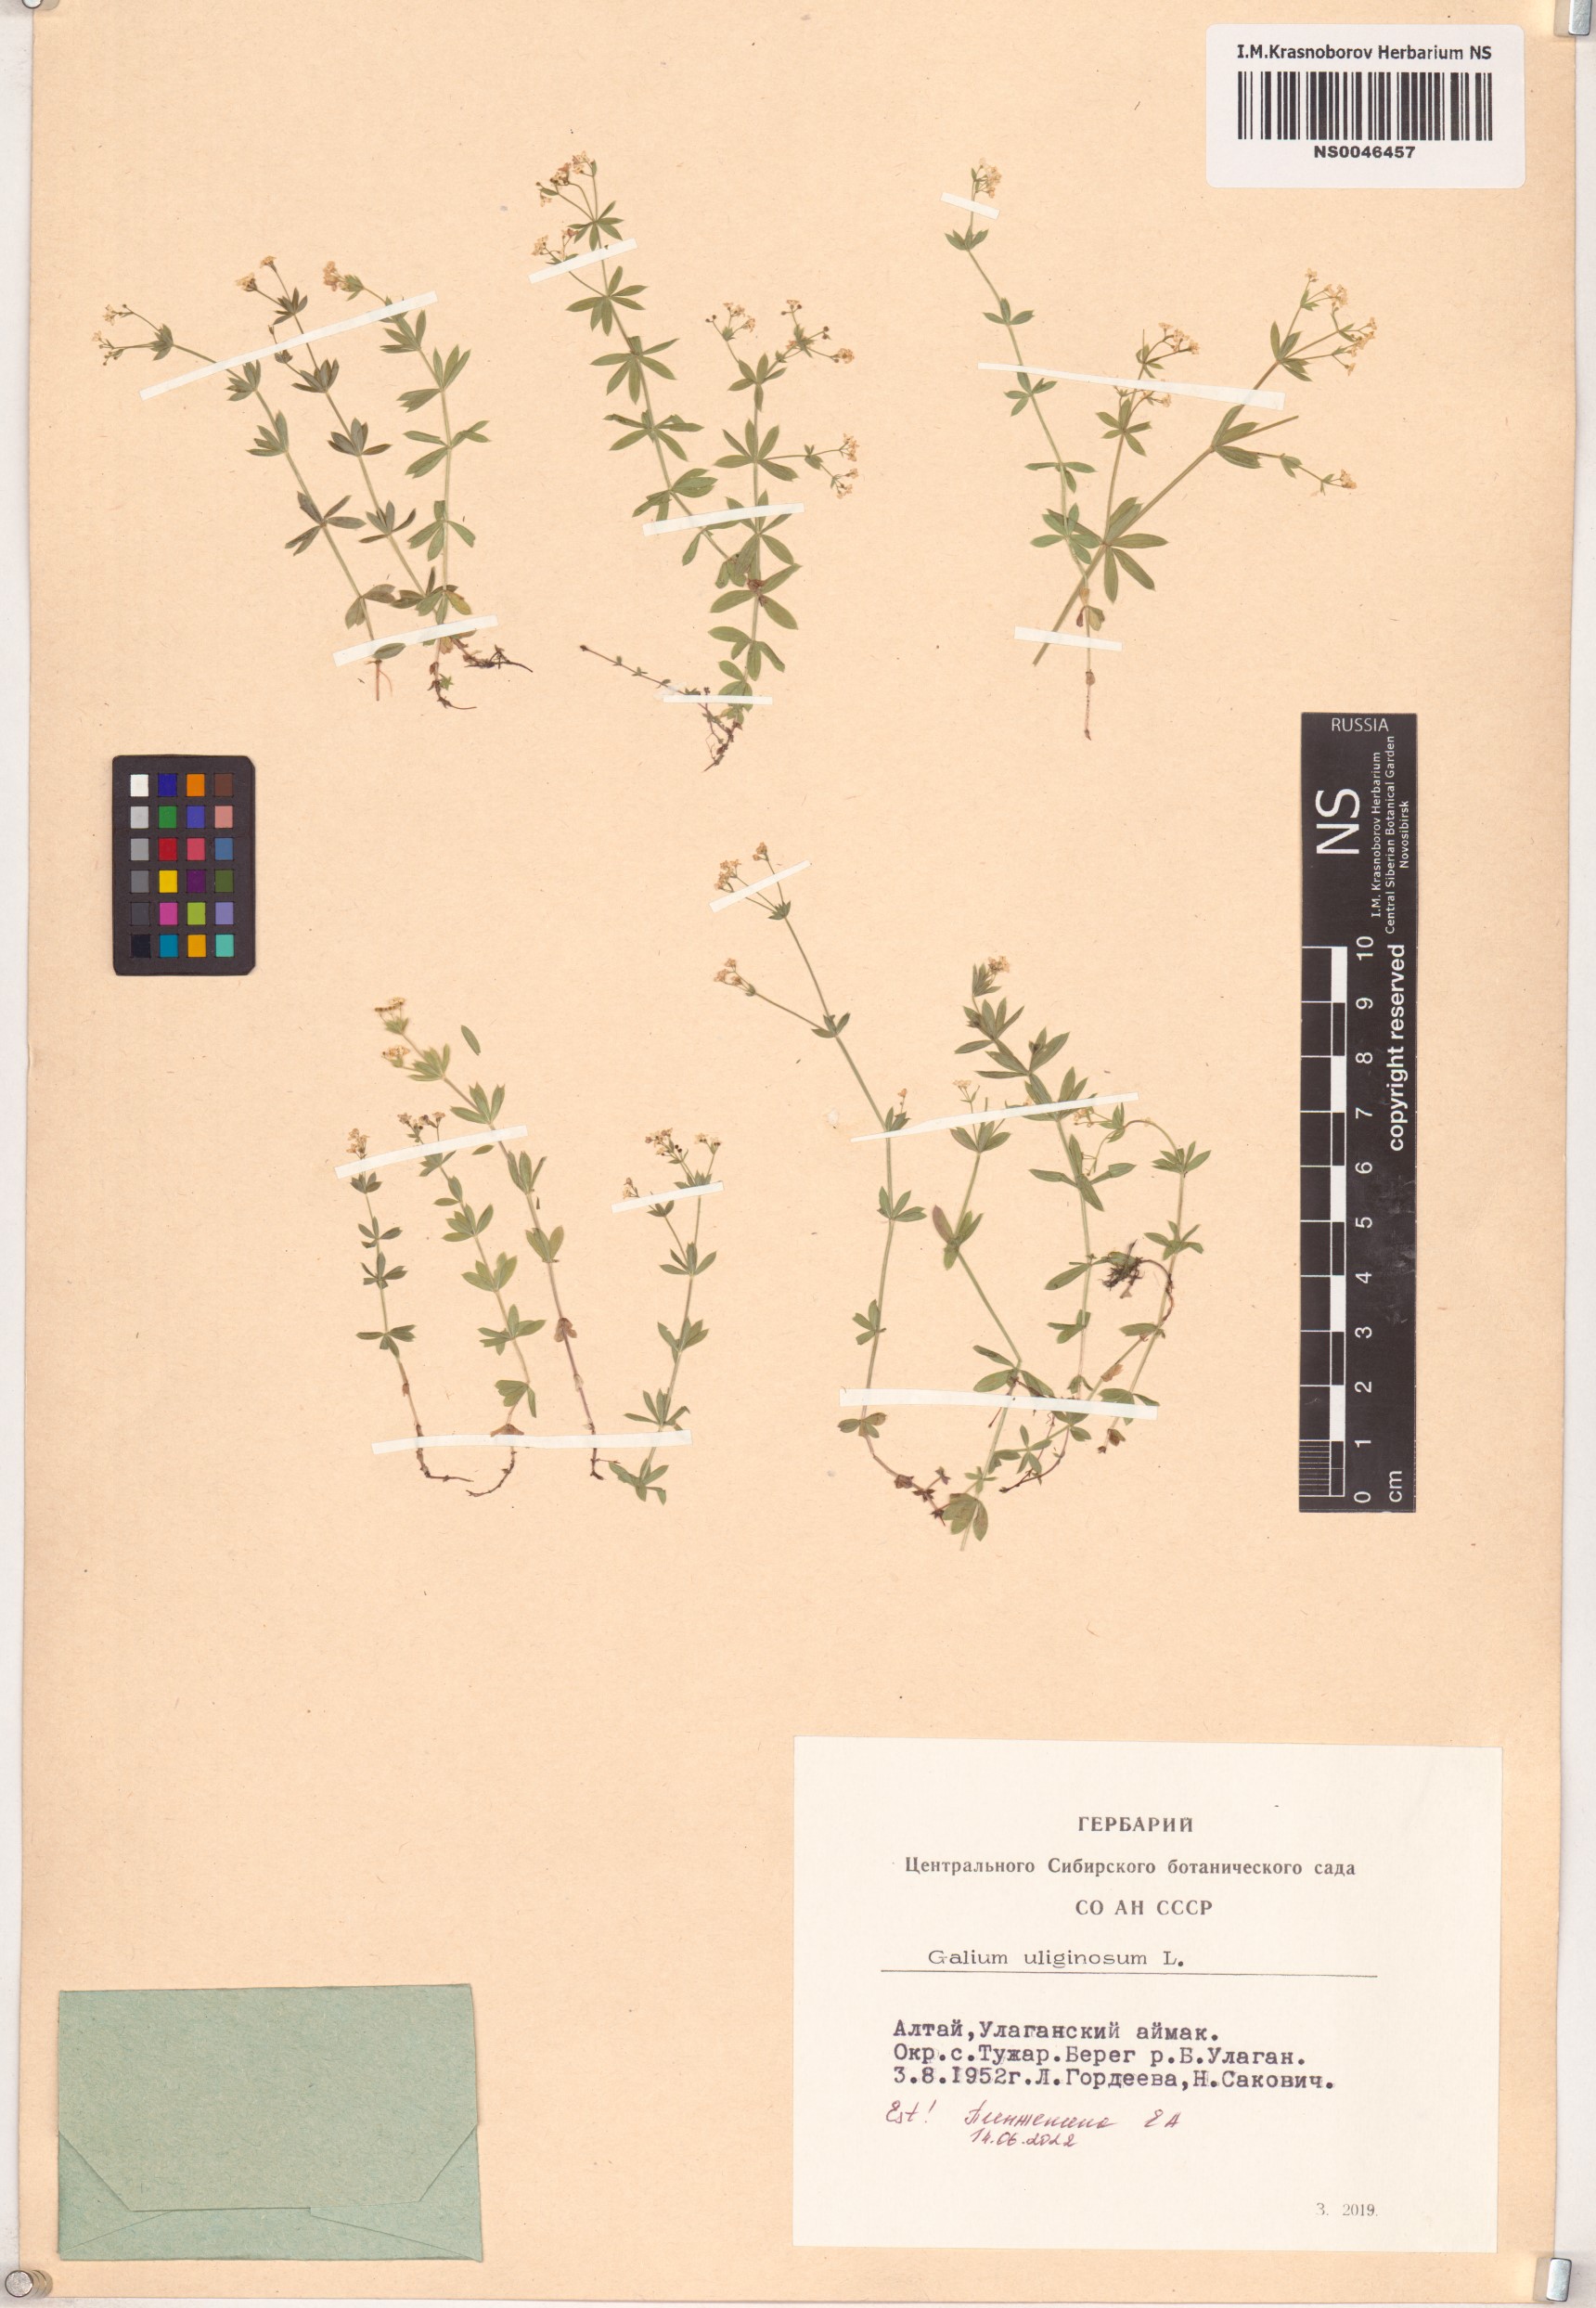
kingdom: Plantae
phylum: Tracheophyta
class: Magnoliopsida
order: Gentianales
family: Rubiaceae
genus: Galium
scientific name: Galium uliginosum
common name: Fen bedstraw
